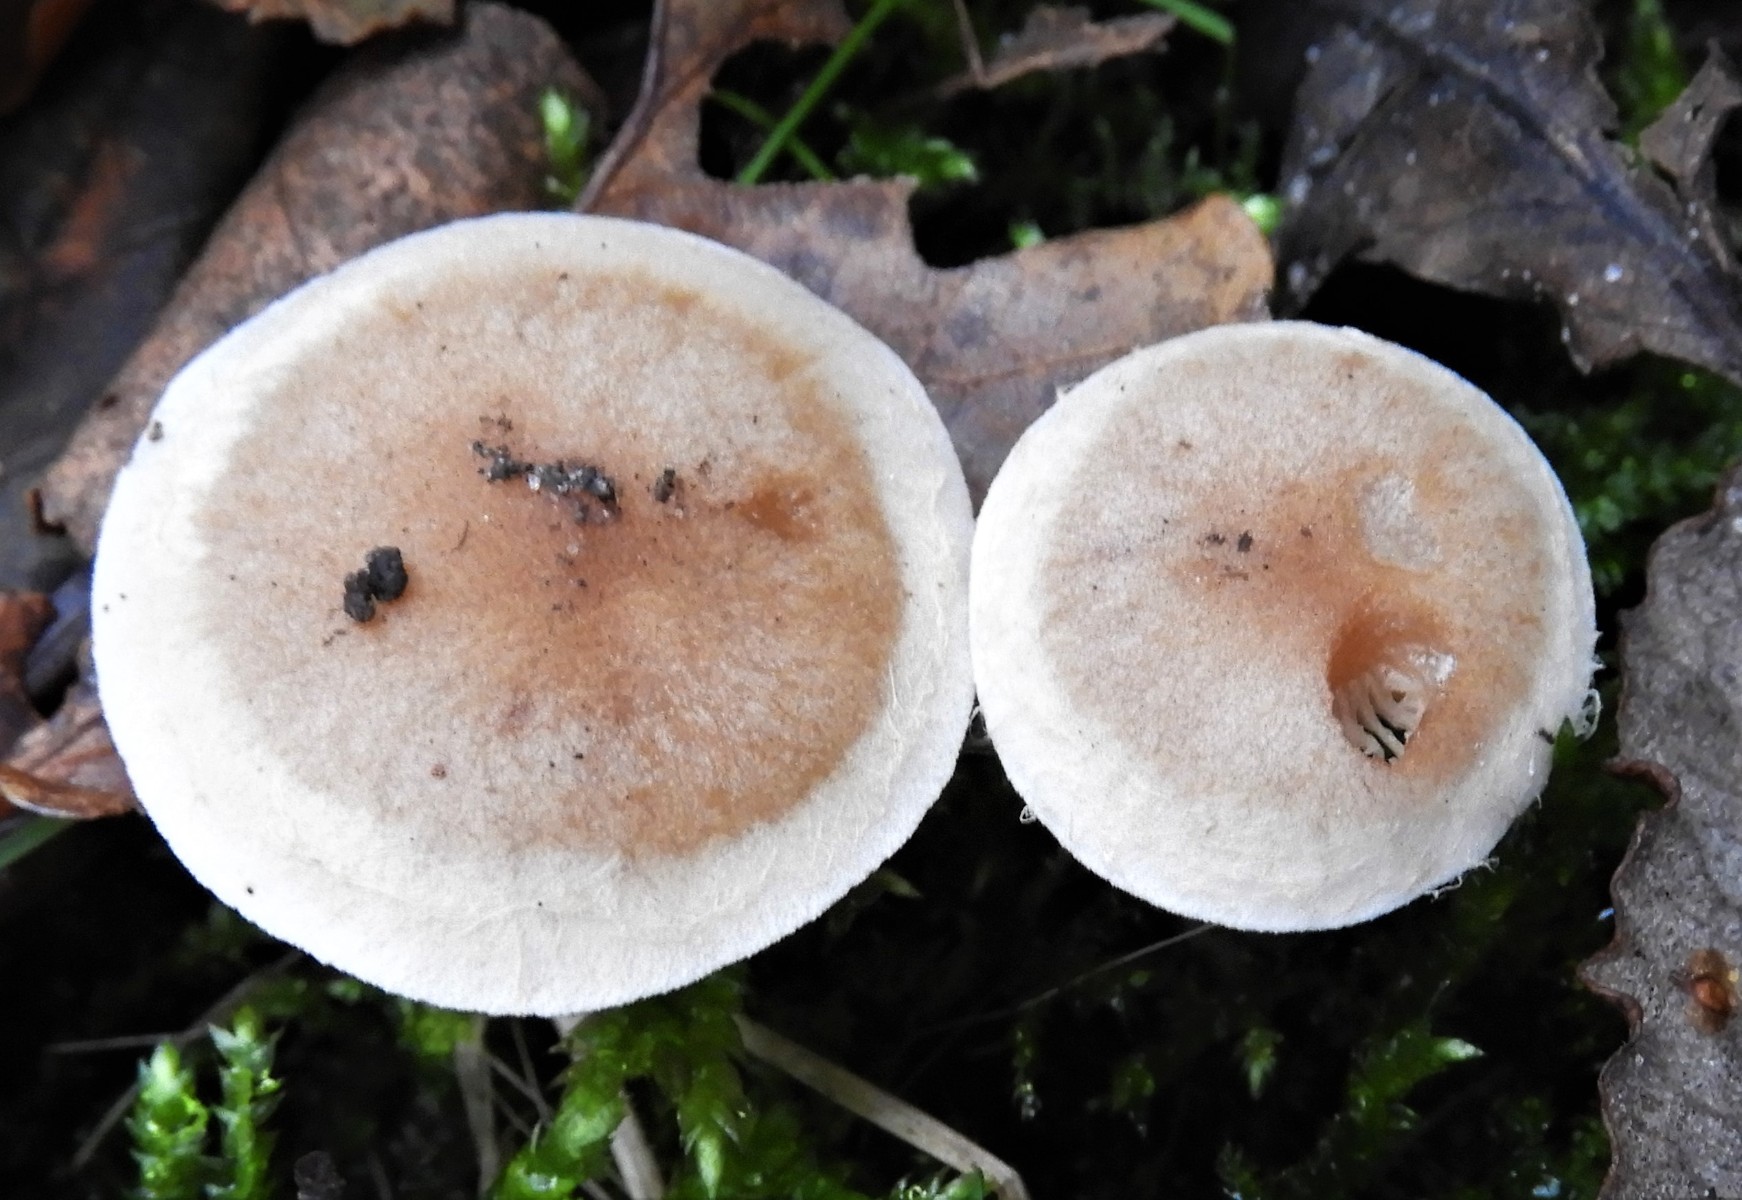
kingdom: Fungi
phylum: Basidiomycota
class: Agaricomycetes
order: Agaricales
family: Hymenogastraceae
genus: Hebeloma
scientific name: Hebeloma mesophaeum
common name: lerbrun tåreblad
